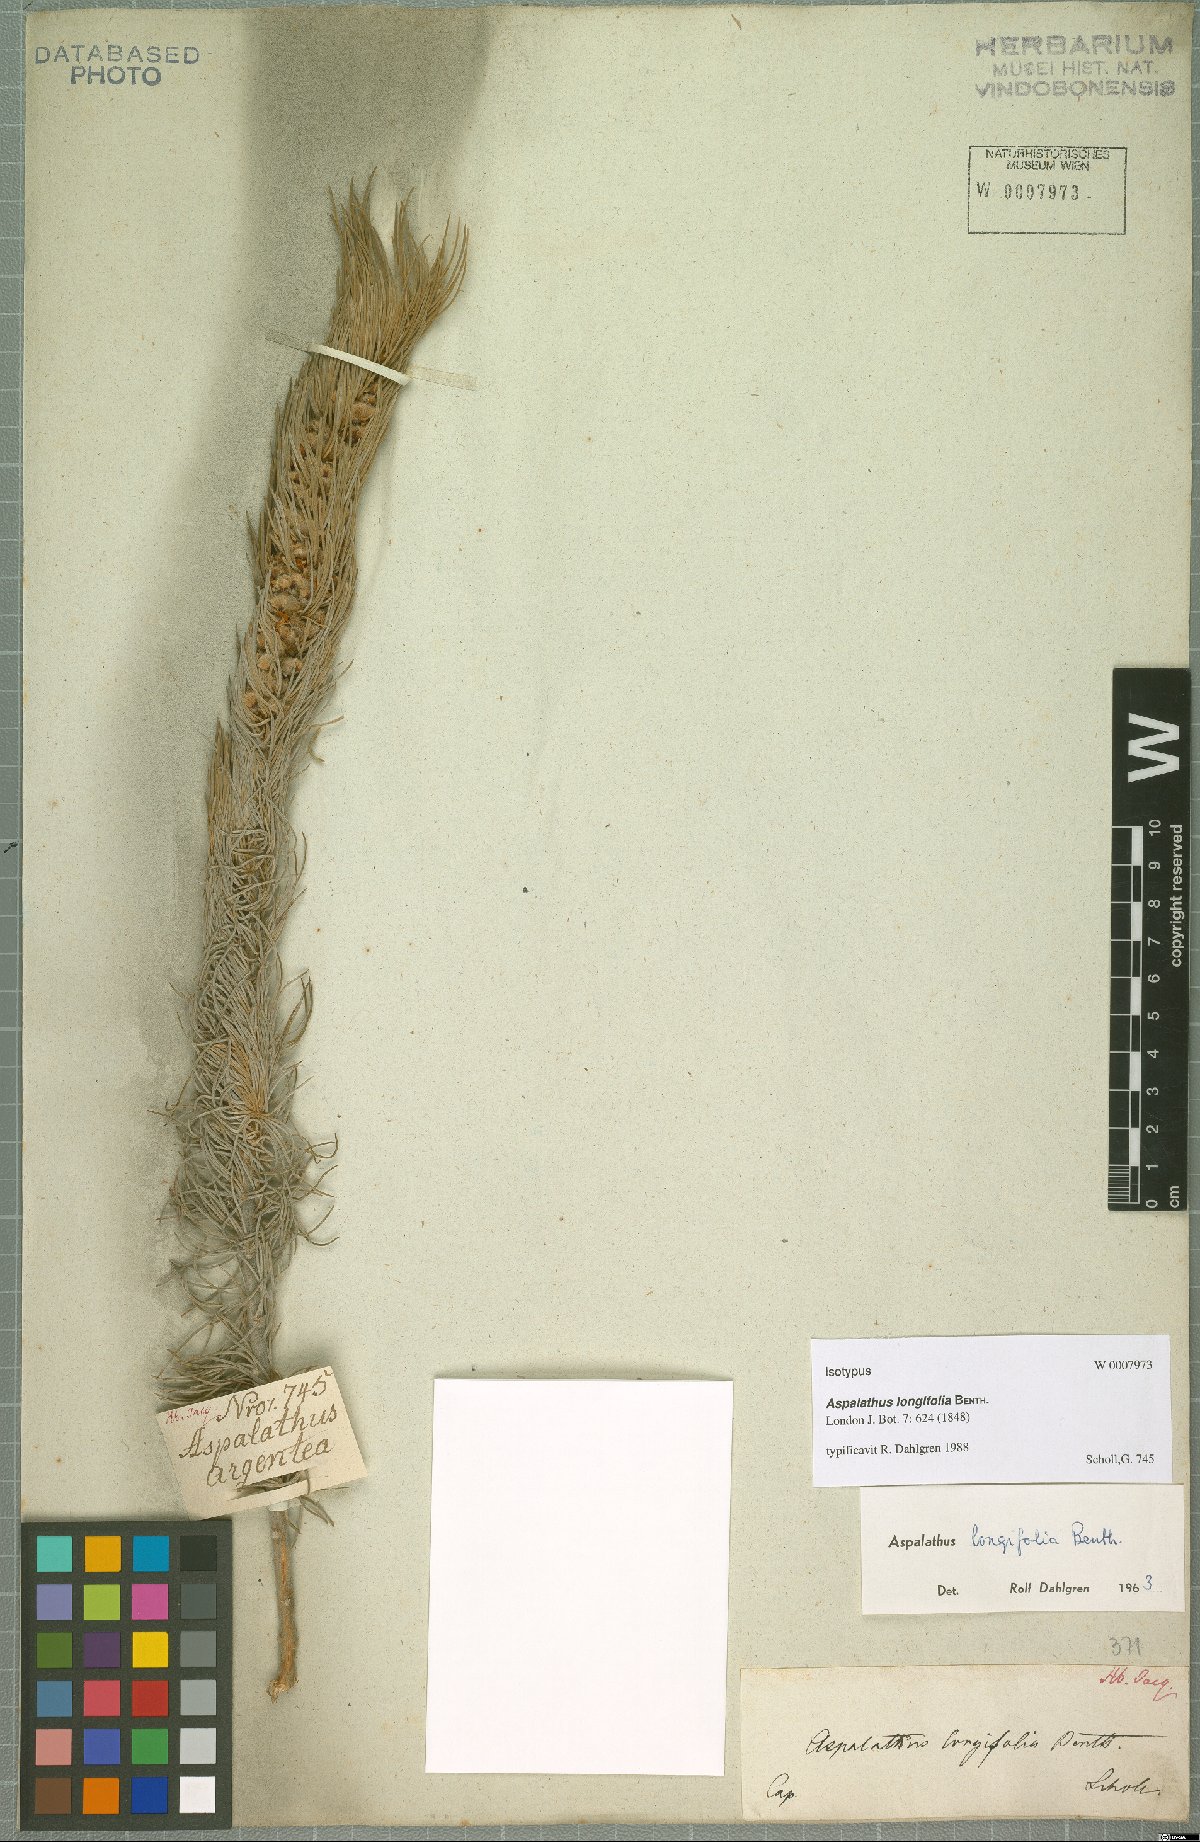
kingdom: Plantae
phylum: Tracheophyta
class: Magnoliopsida
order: Fabales
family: Fabaceae
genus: Aspalathus
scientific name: Aspalathus longifolia
